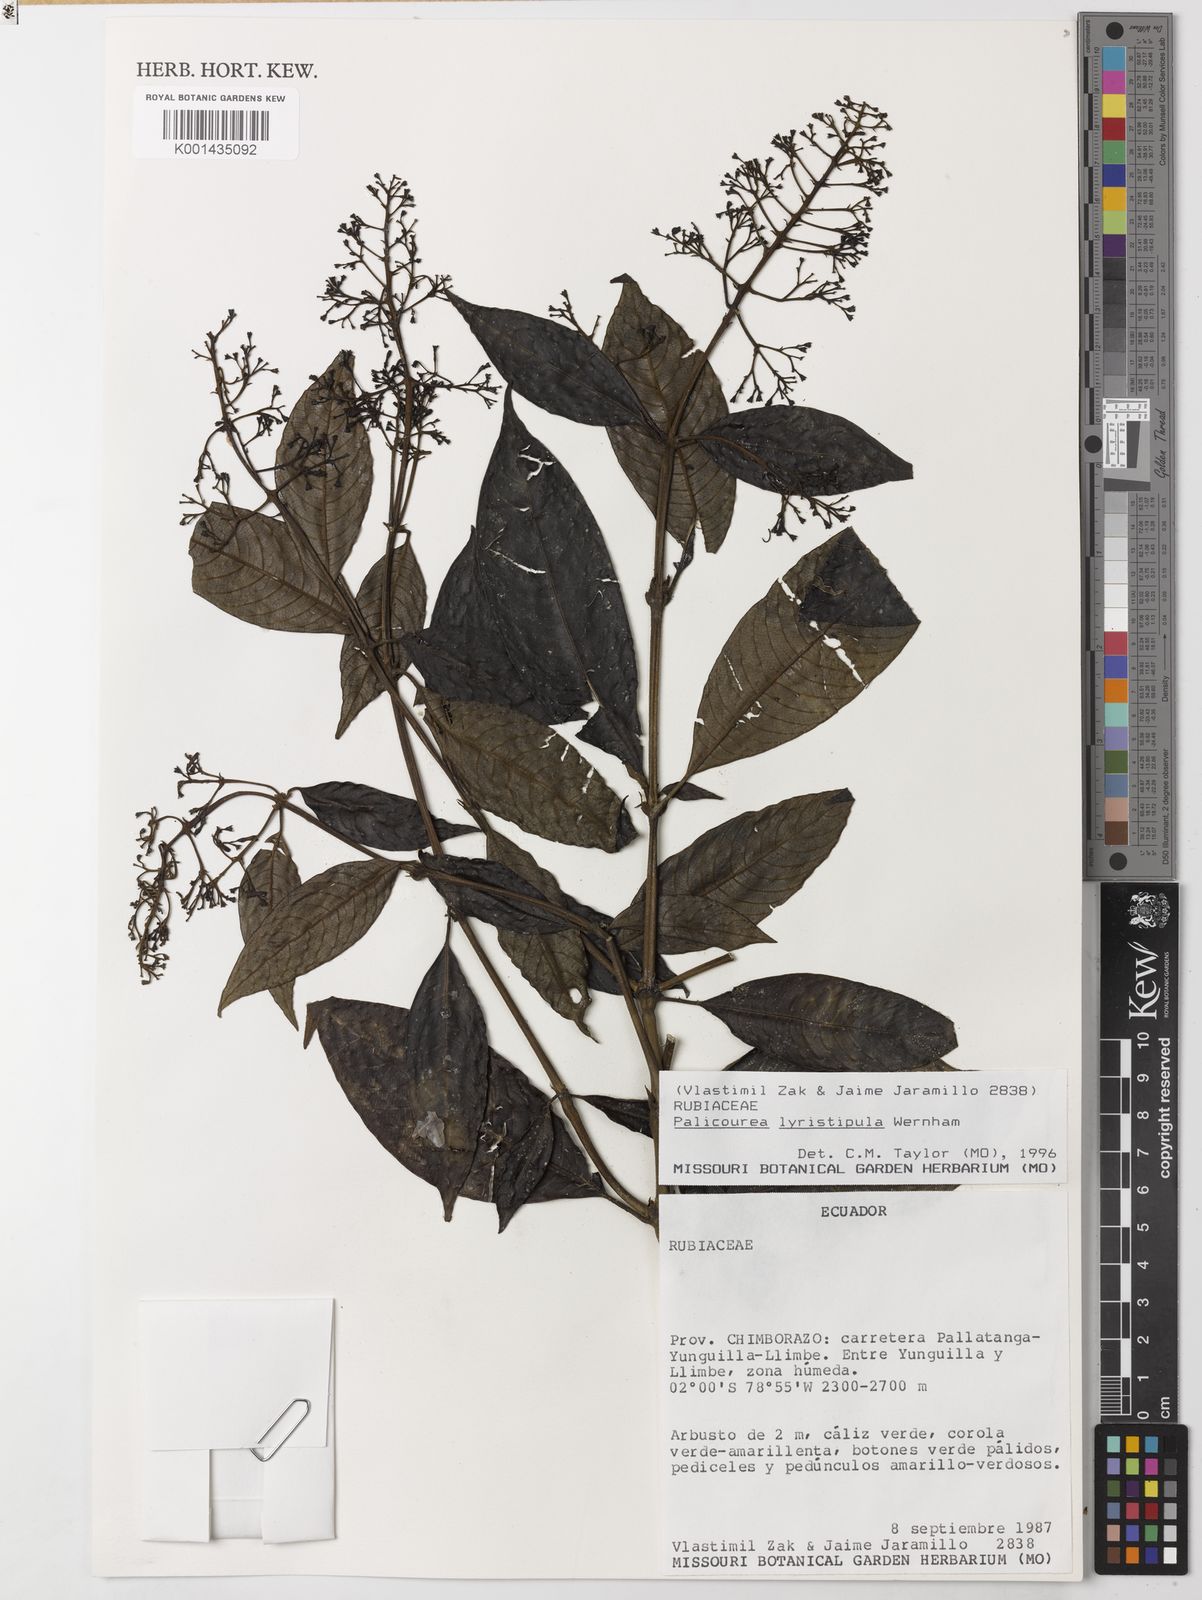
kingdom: Plantae
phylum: Tracheophyta
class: Magnoliopsida
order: Gentianales
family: Rubiaceae
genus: Palicourea
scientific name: Palicourea lyristipula
